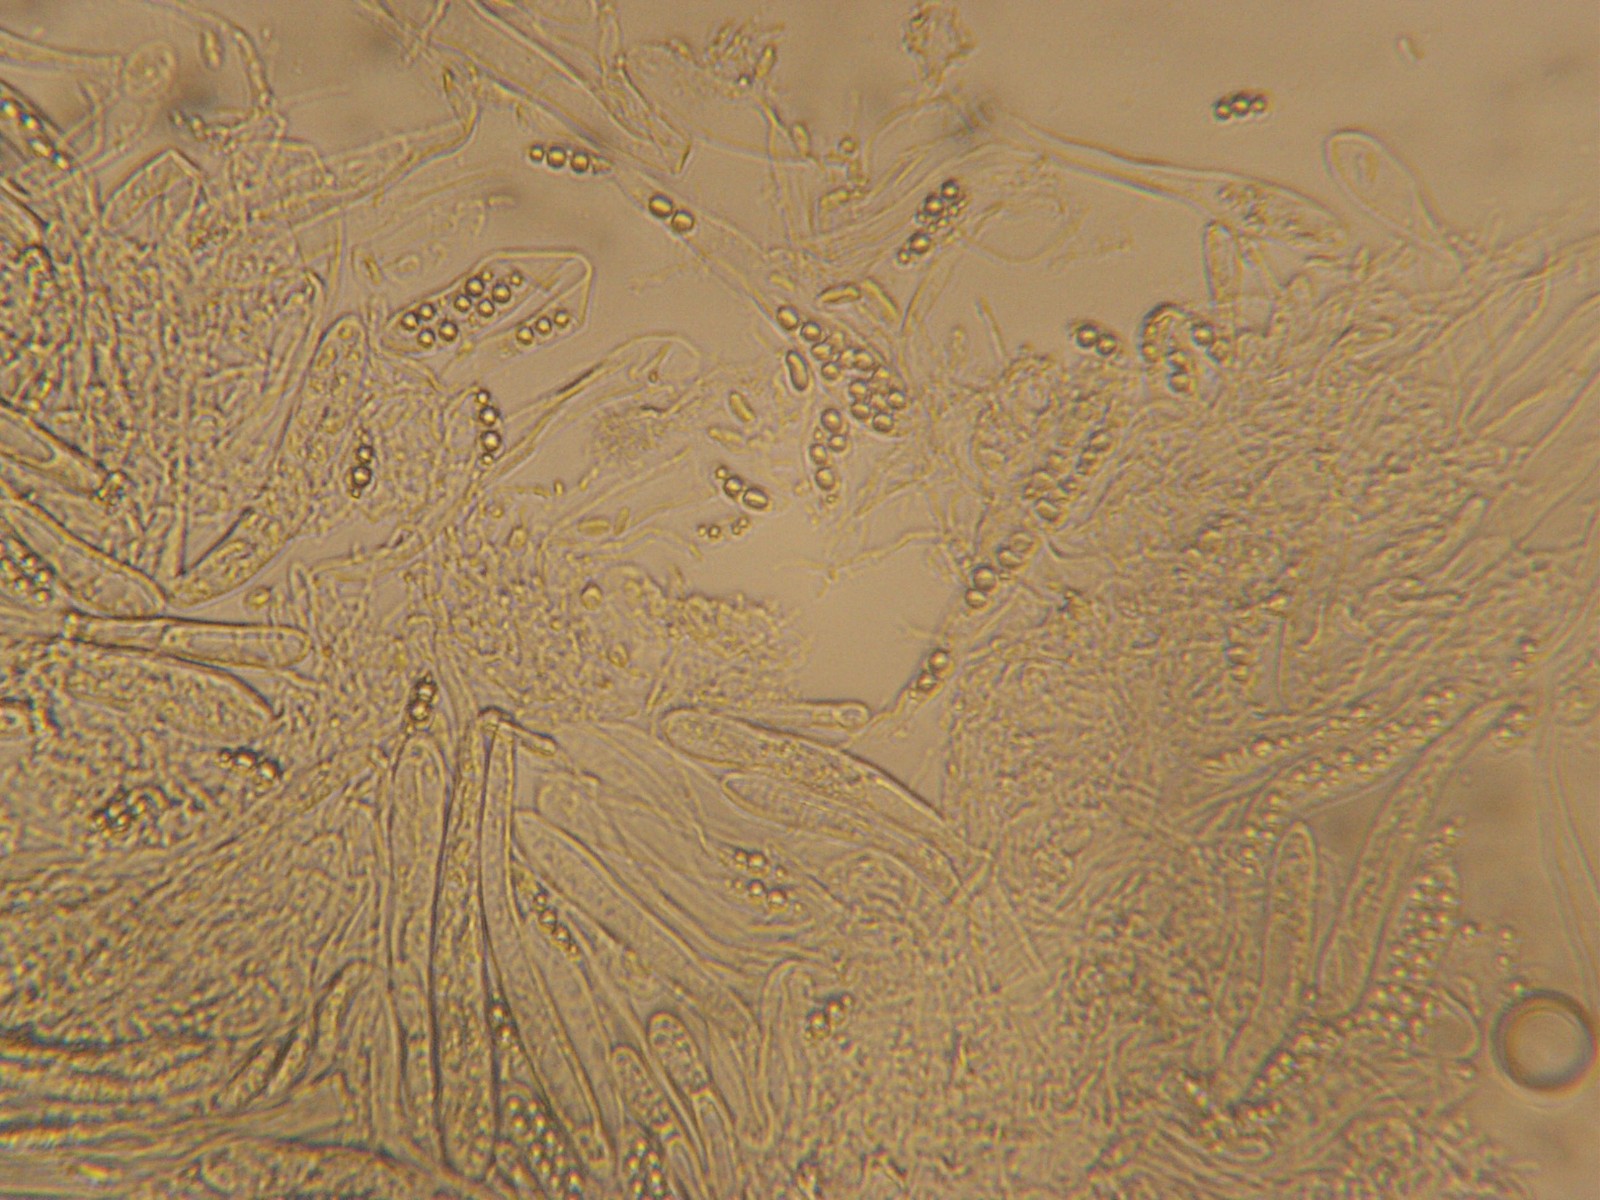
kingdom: Fungi
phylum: Ascomycota
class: Leotiomycetes
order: Helotiales
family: Hyaloscyphaceae
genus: Polydesmia
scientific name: Polydesmia pruinosa
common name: dunskive
